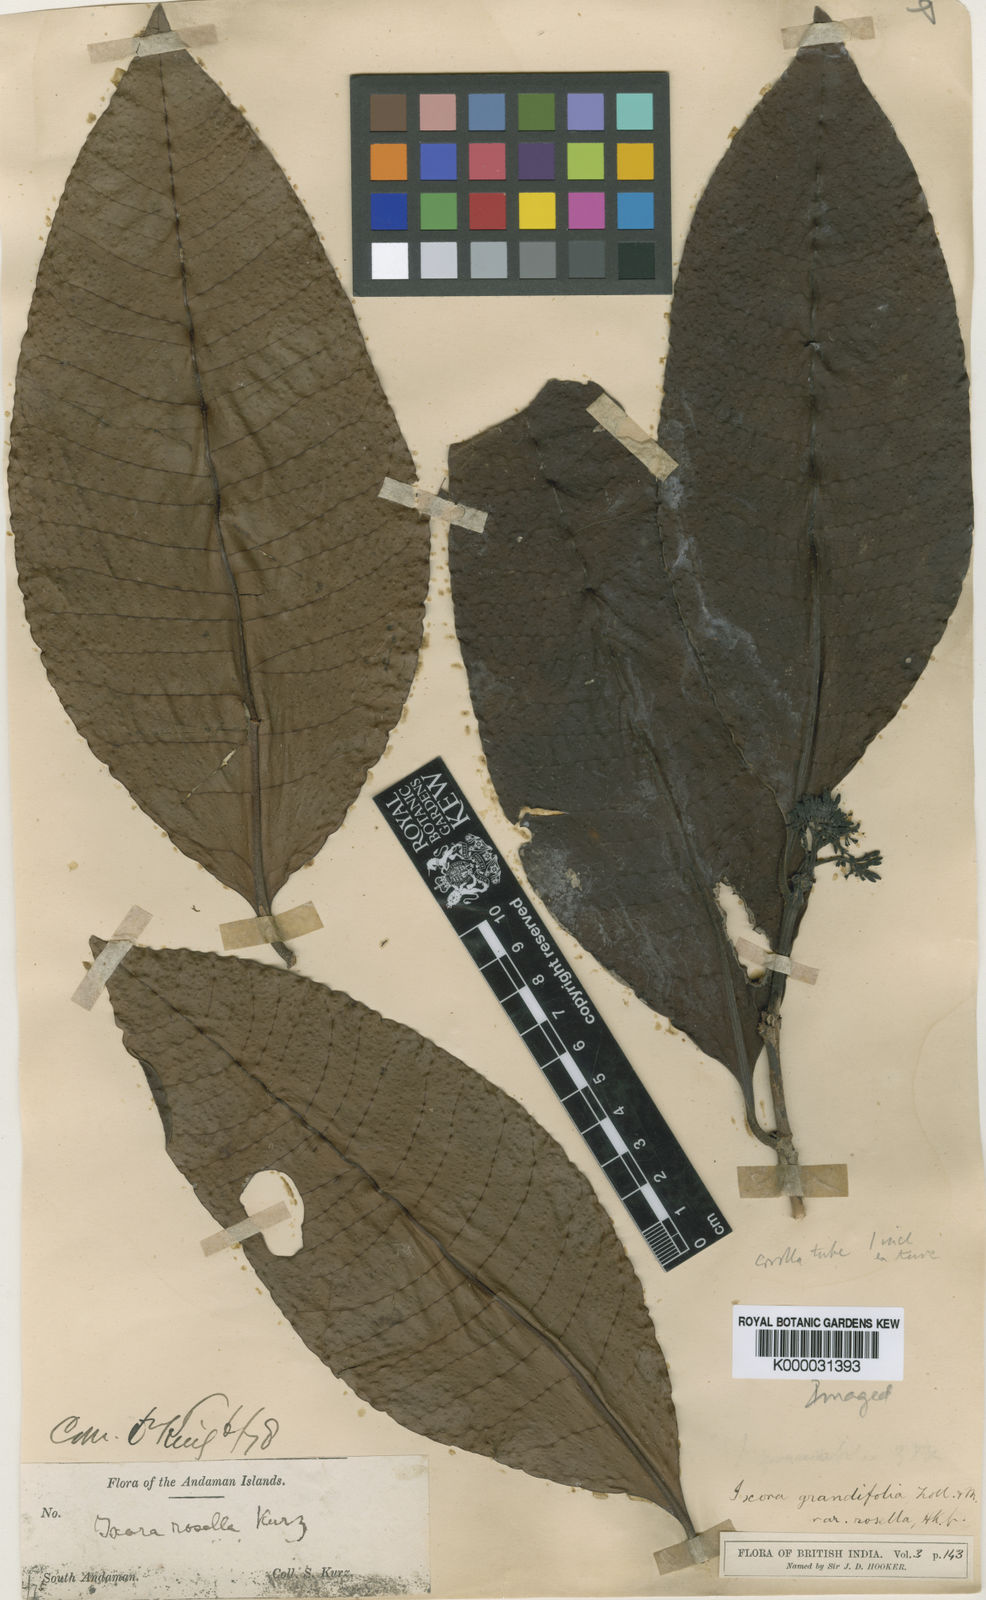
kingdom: Plantae
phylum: Tracheophyta
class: Magnoliopsida
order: Gentianales
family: Rubiaceae
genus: Ixora
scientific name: Ixora grandifolia
